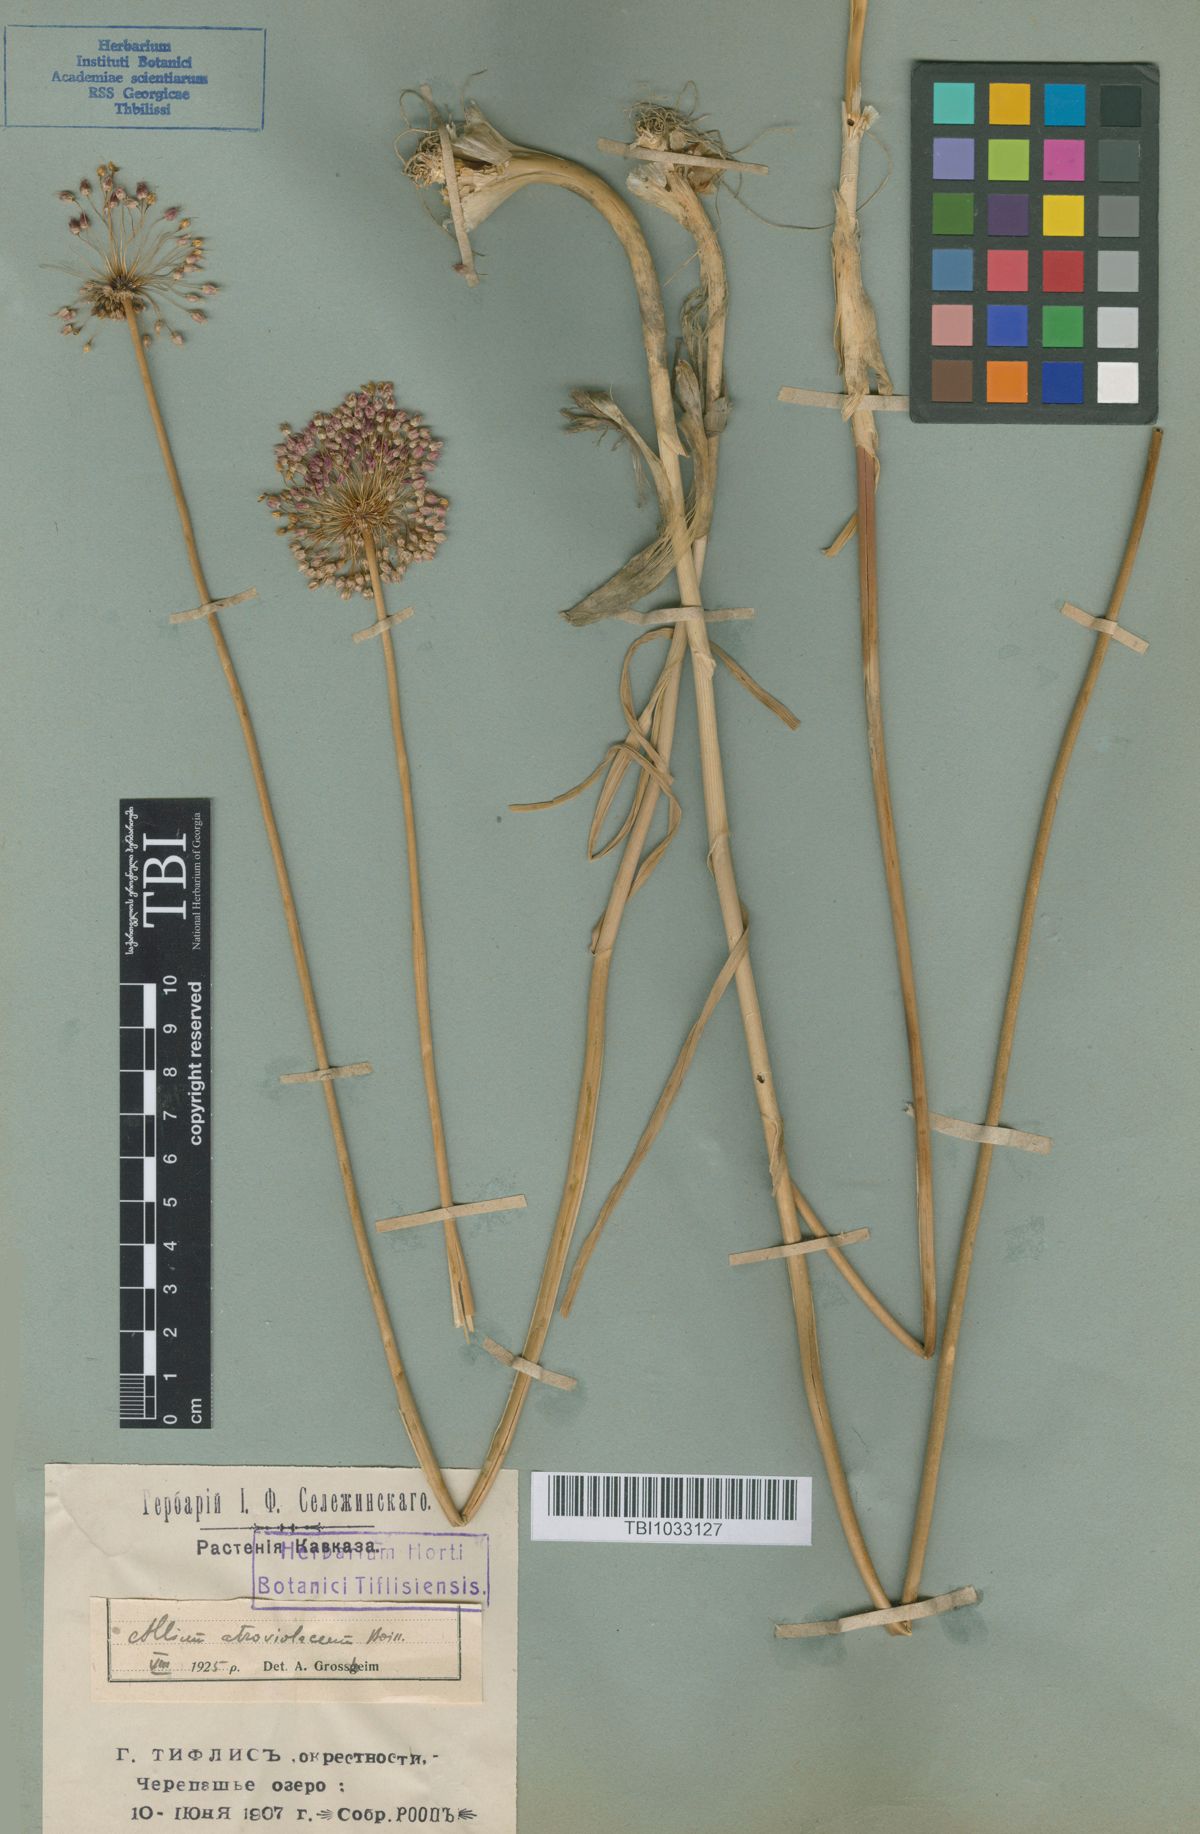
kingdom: Plantae
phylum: Tracheophyta
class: Liliopsida
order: Asparagales
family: Amaryllidaceae
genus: Allium
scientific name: Allium atroviolaceum
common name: Broadleaf wild leek
